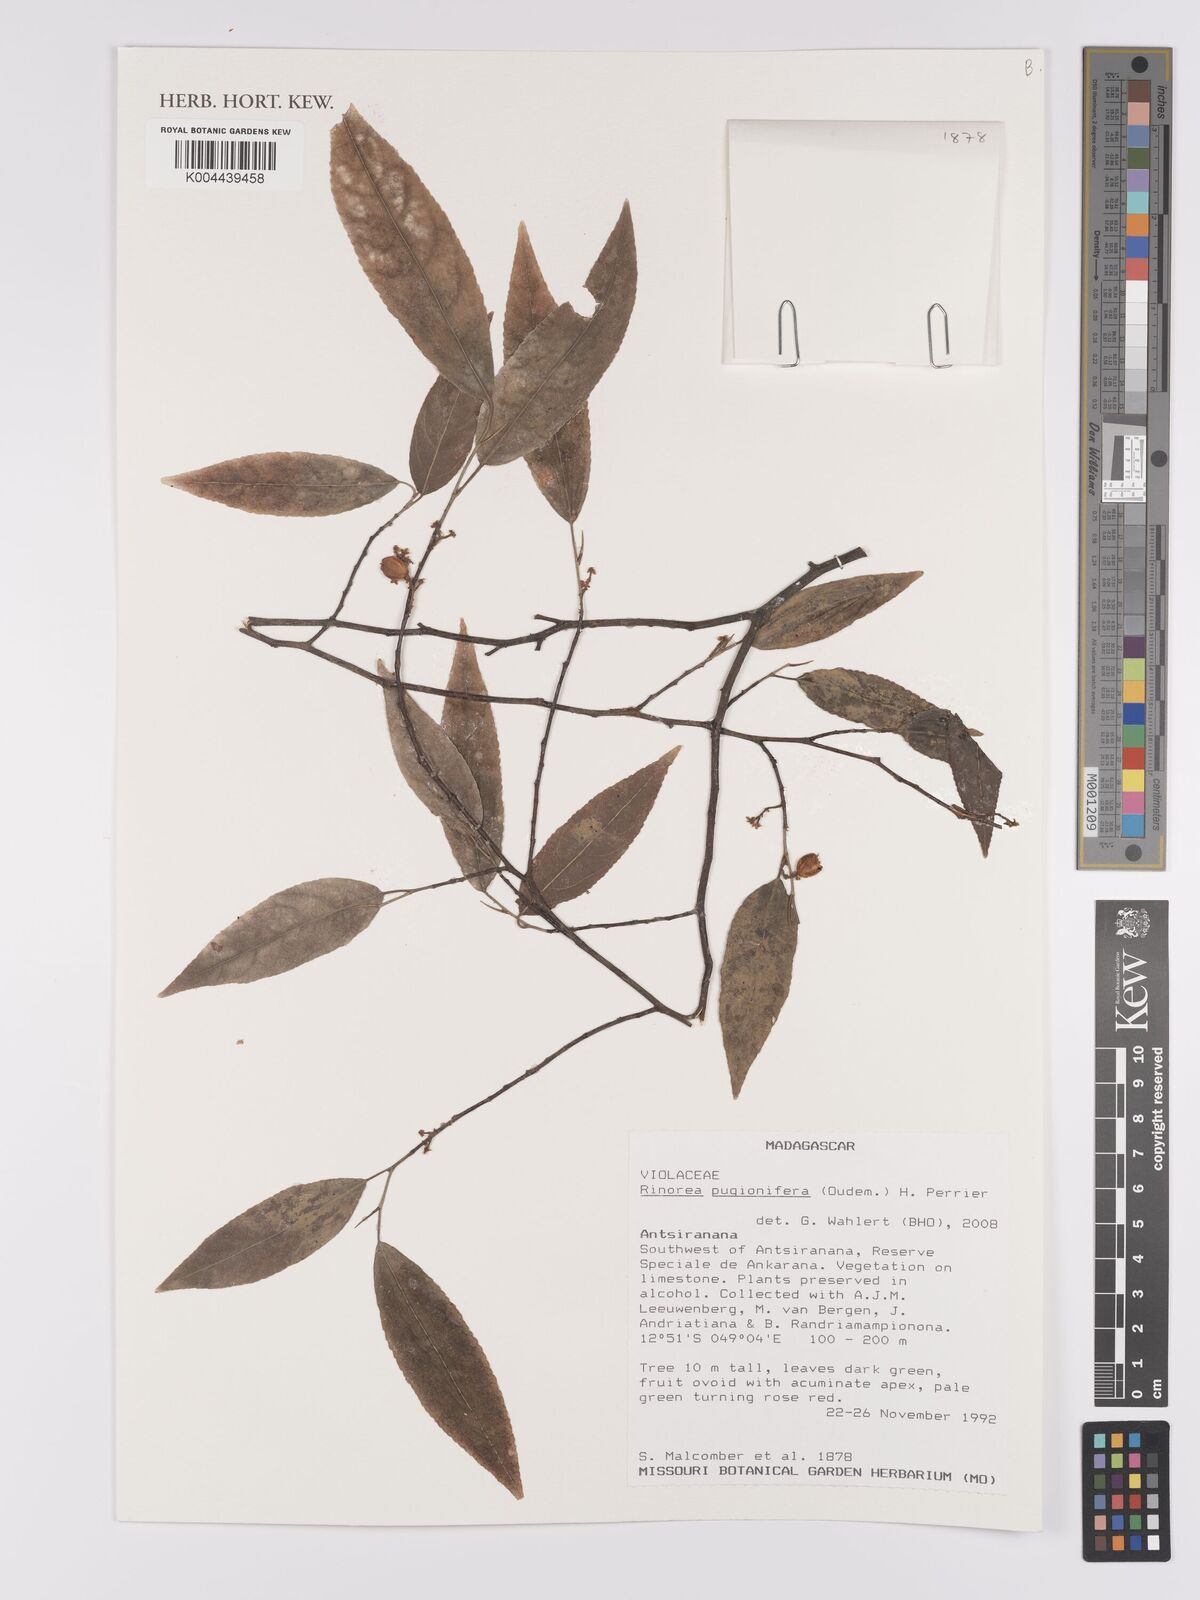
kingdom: Plantae
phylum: Tracheophyta
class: Magnoliopsida
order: Malpighiales
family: Violaceae
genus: Rinorea
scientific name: Rinorea pugionifera
